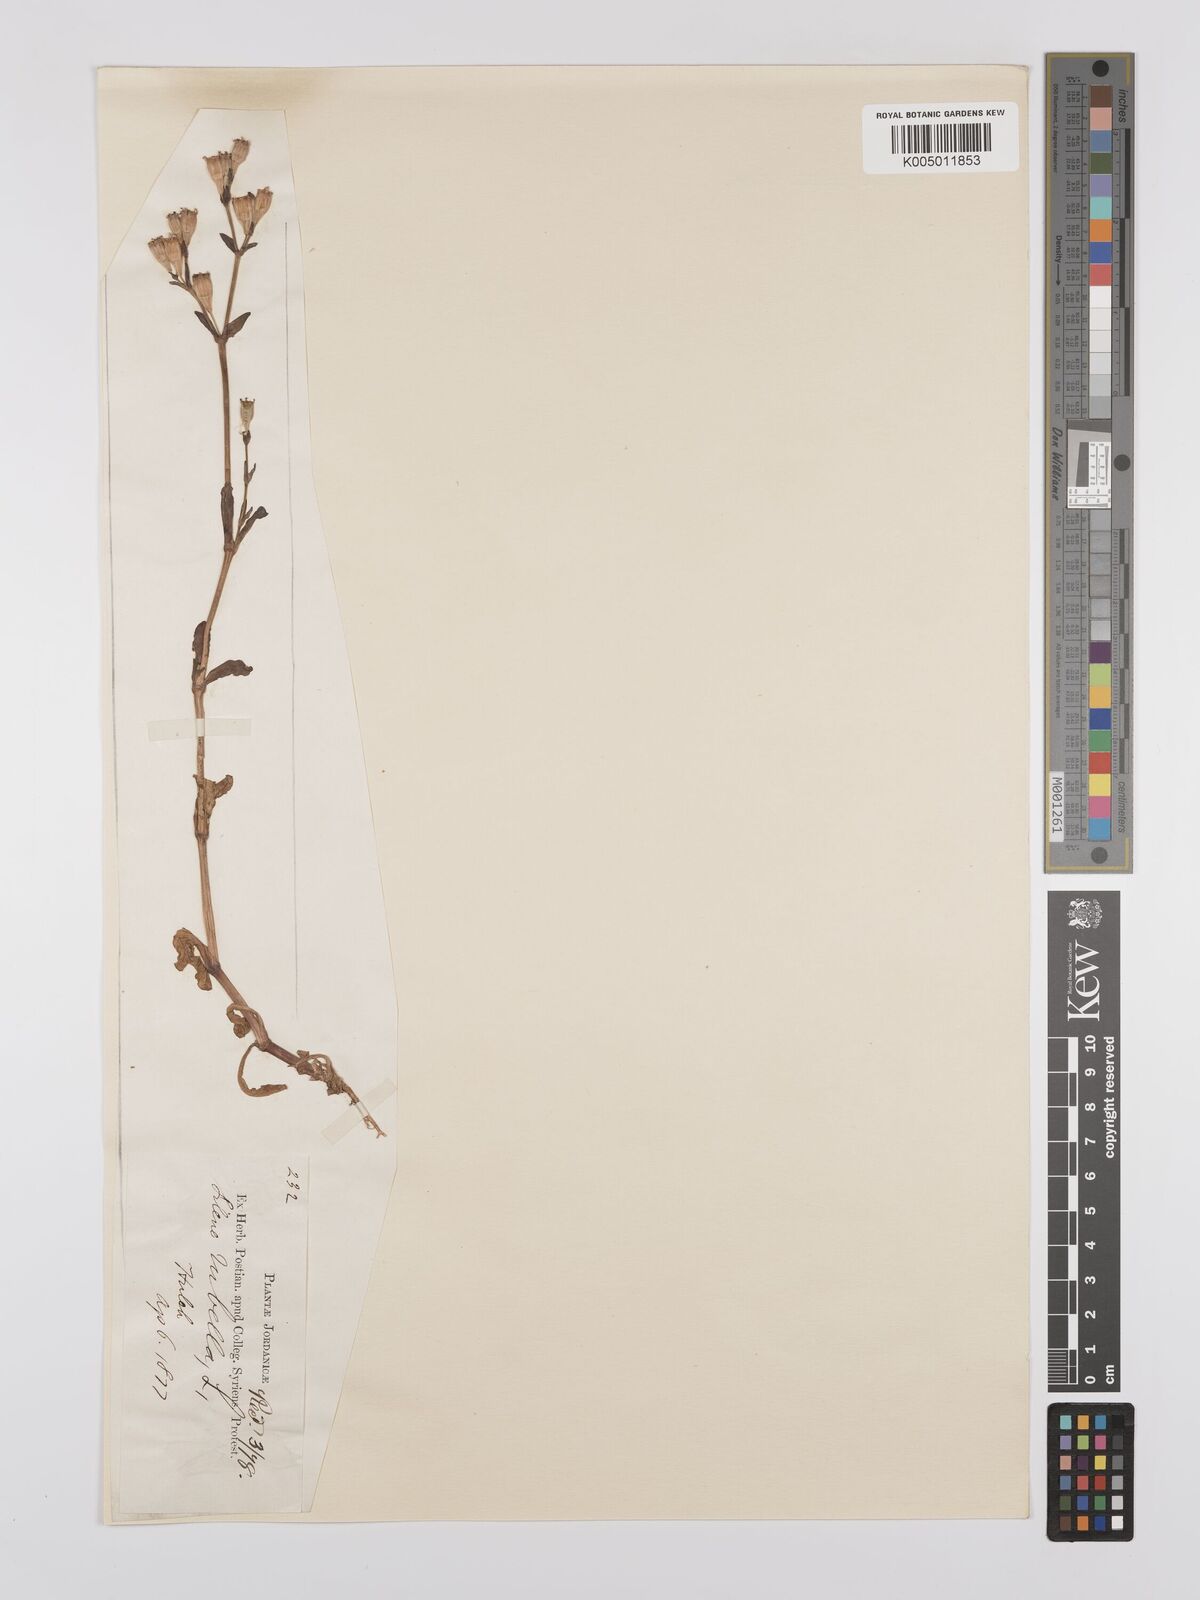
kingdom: Plantae
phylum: Tracheophyta
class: Magnoliopsida
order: Caryophyllales
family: Caryophyllaceae
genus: Silene
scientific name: Silene rubella
